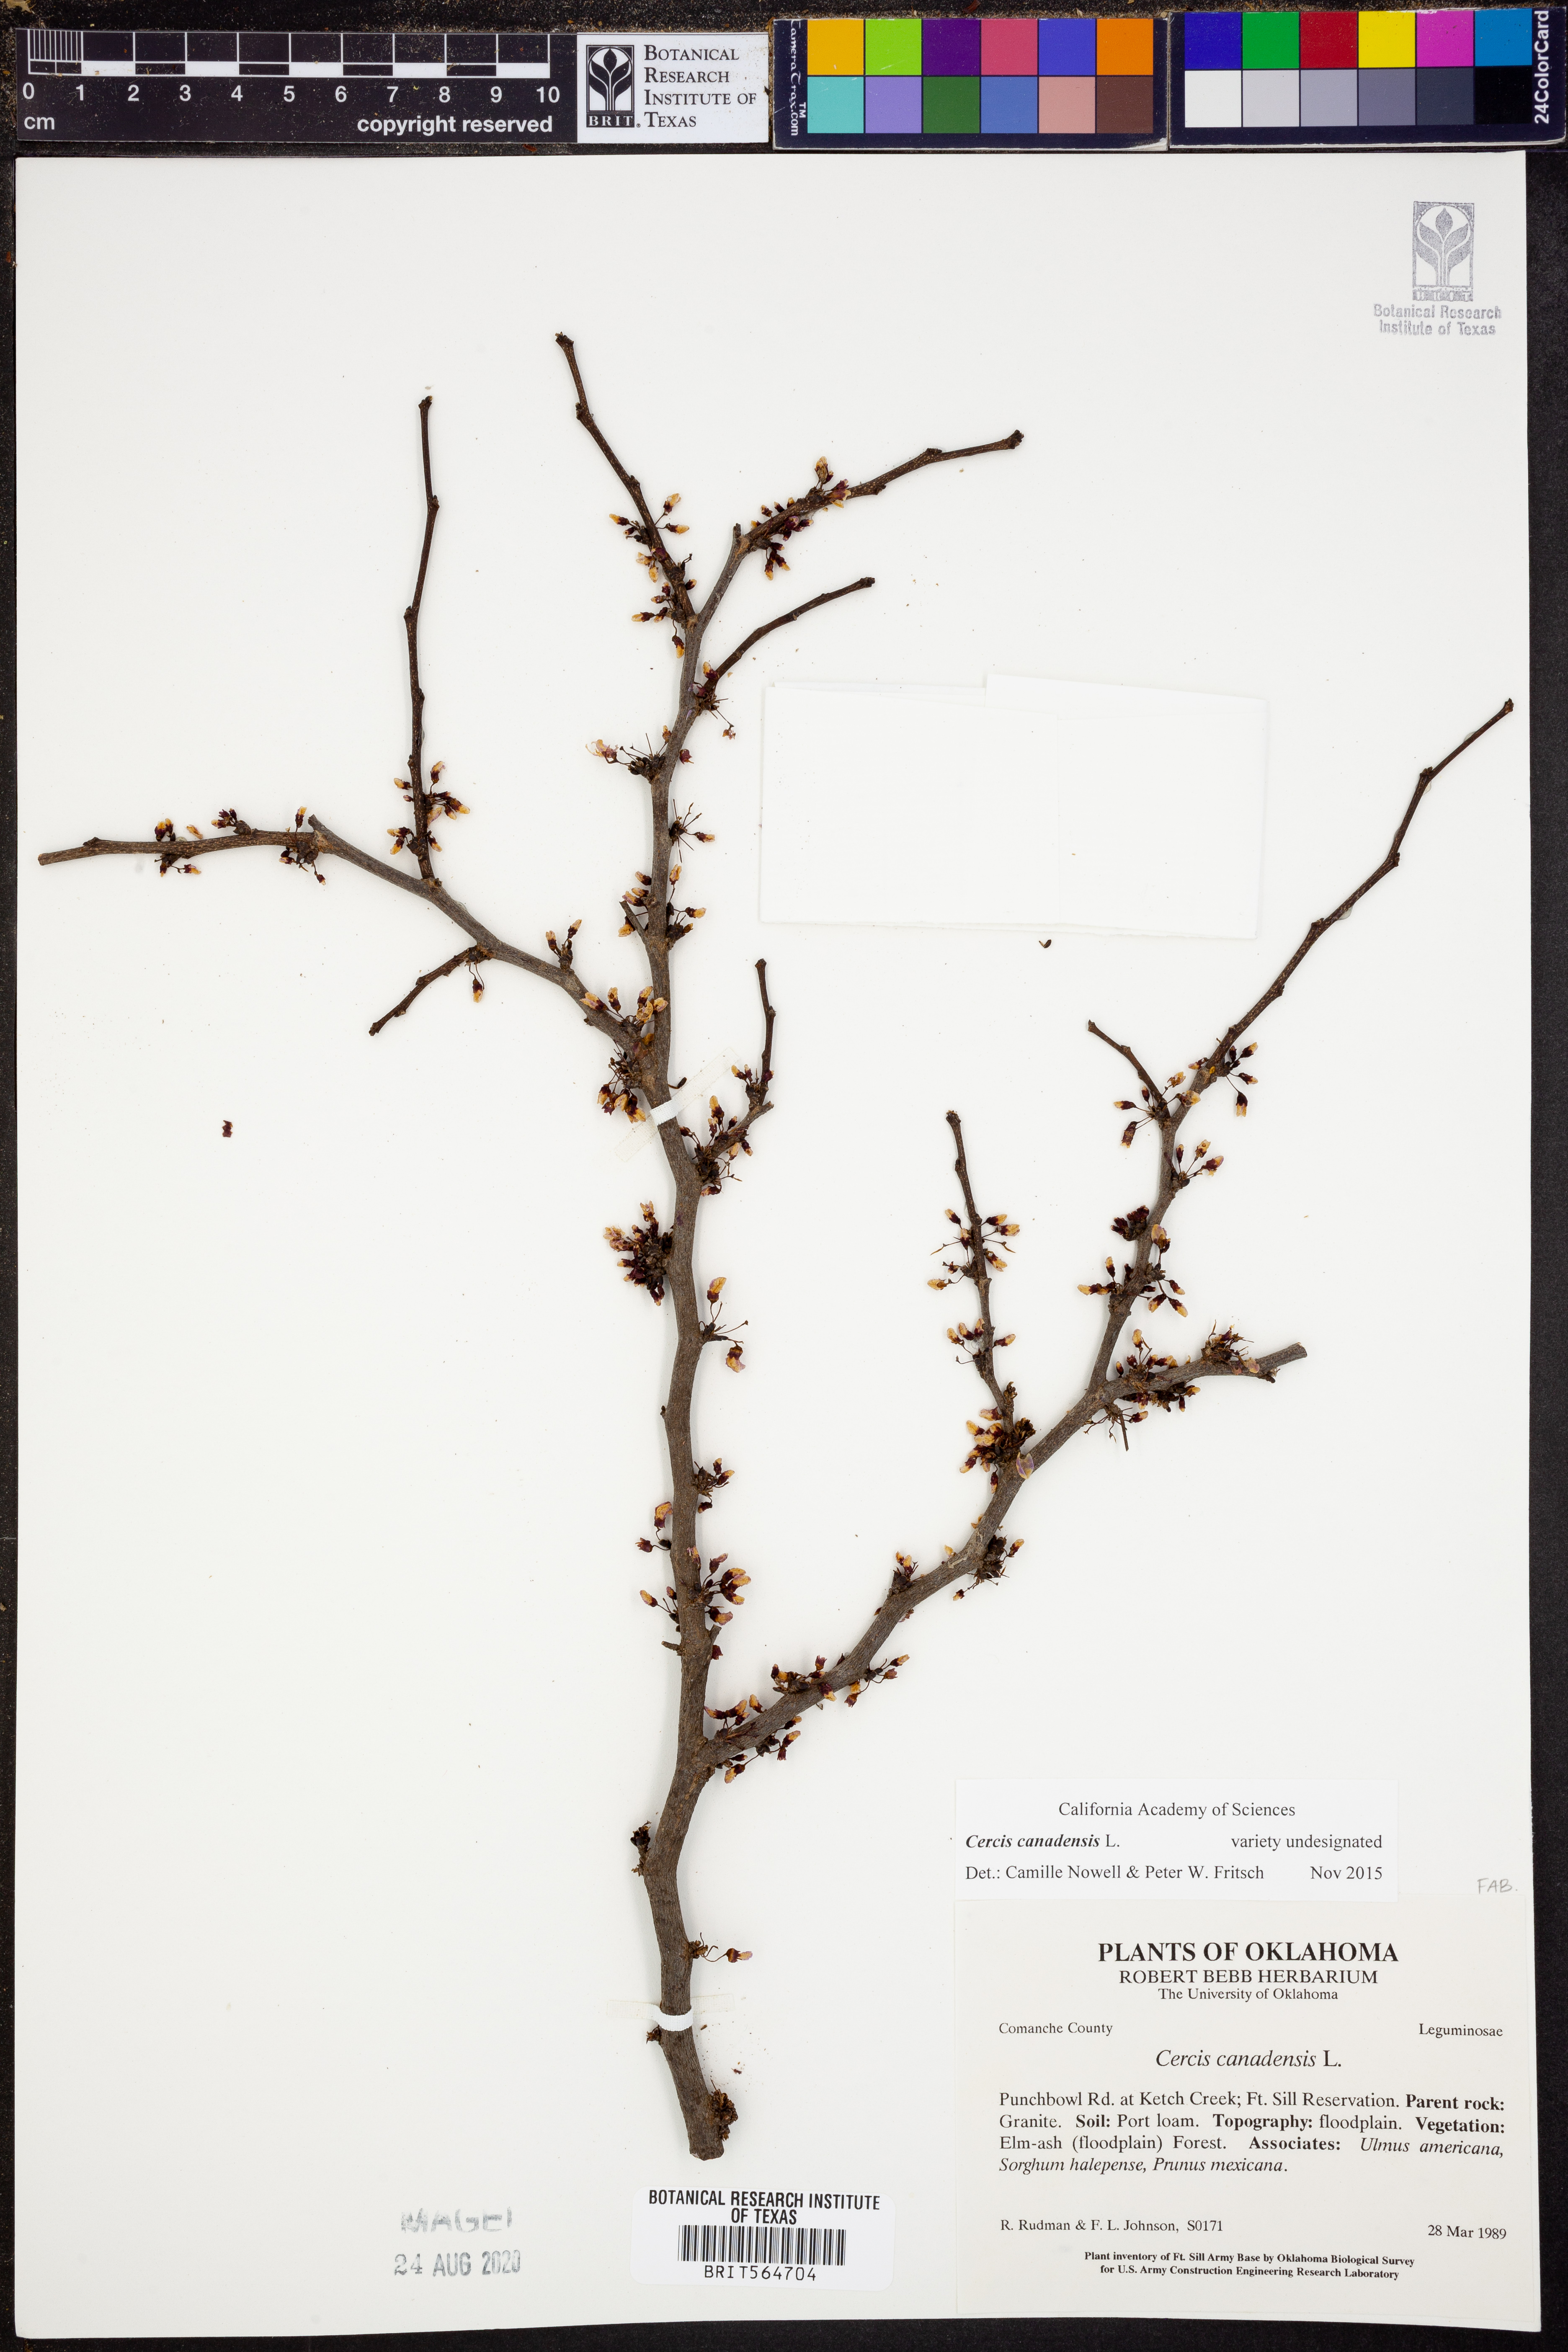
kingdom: Plantae
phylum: Tracheophyta
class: Magnoliopsida
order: Fabales
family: Fabaceae
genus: Cercis
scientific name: Cercis canadensis
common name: Eastern redbud
